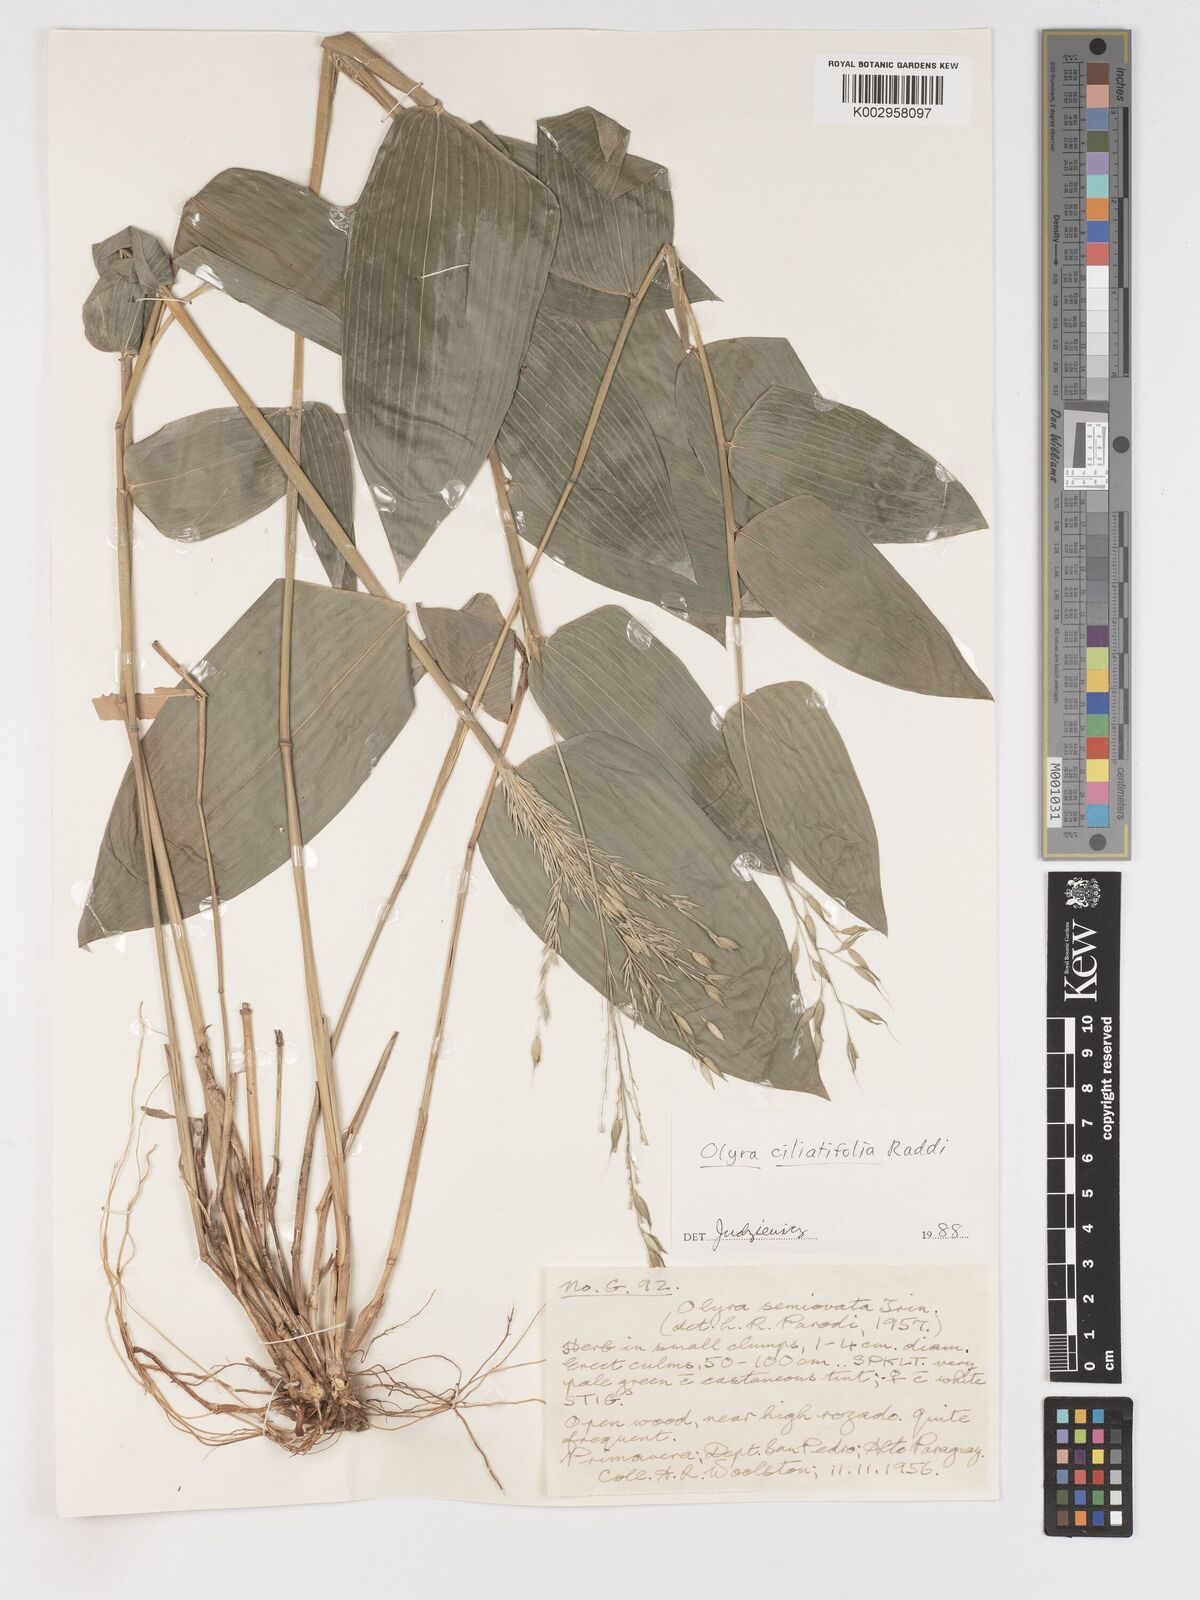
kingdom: Plantae
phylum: Tracheophyta
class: Liliopsida
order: Poales
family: Poaceae
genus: Olyra
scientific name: Olyra ciliatifolia
